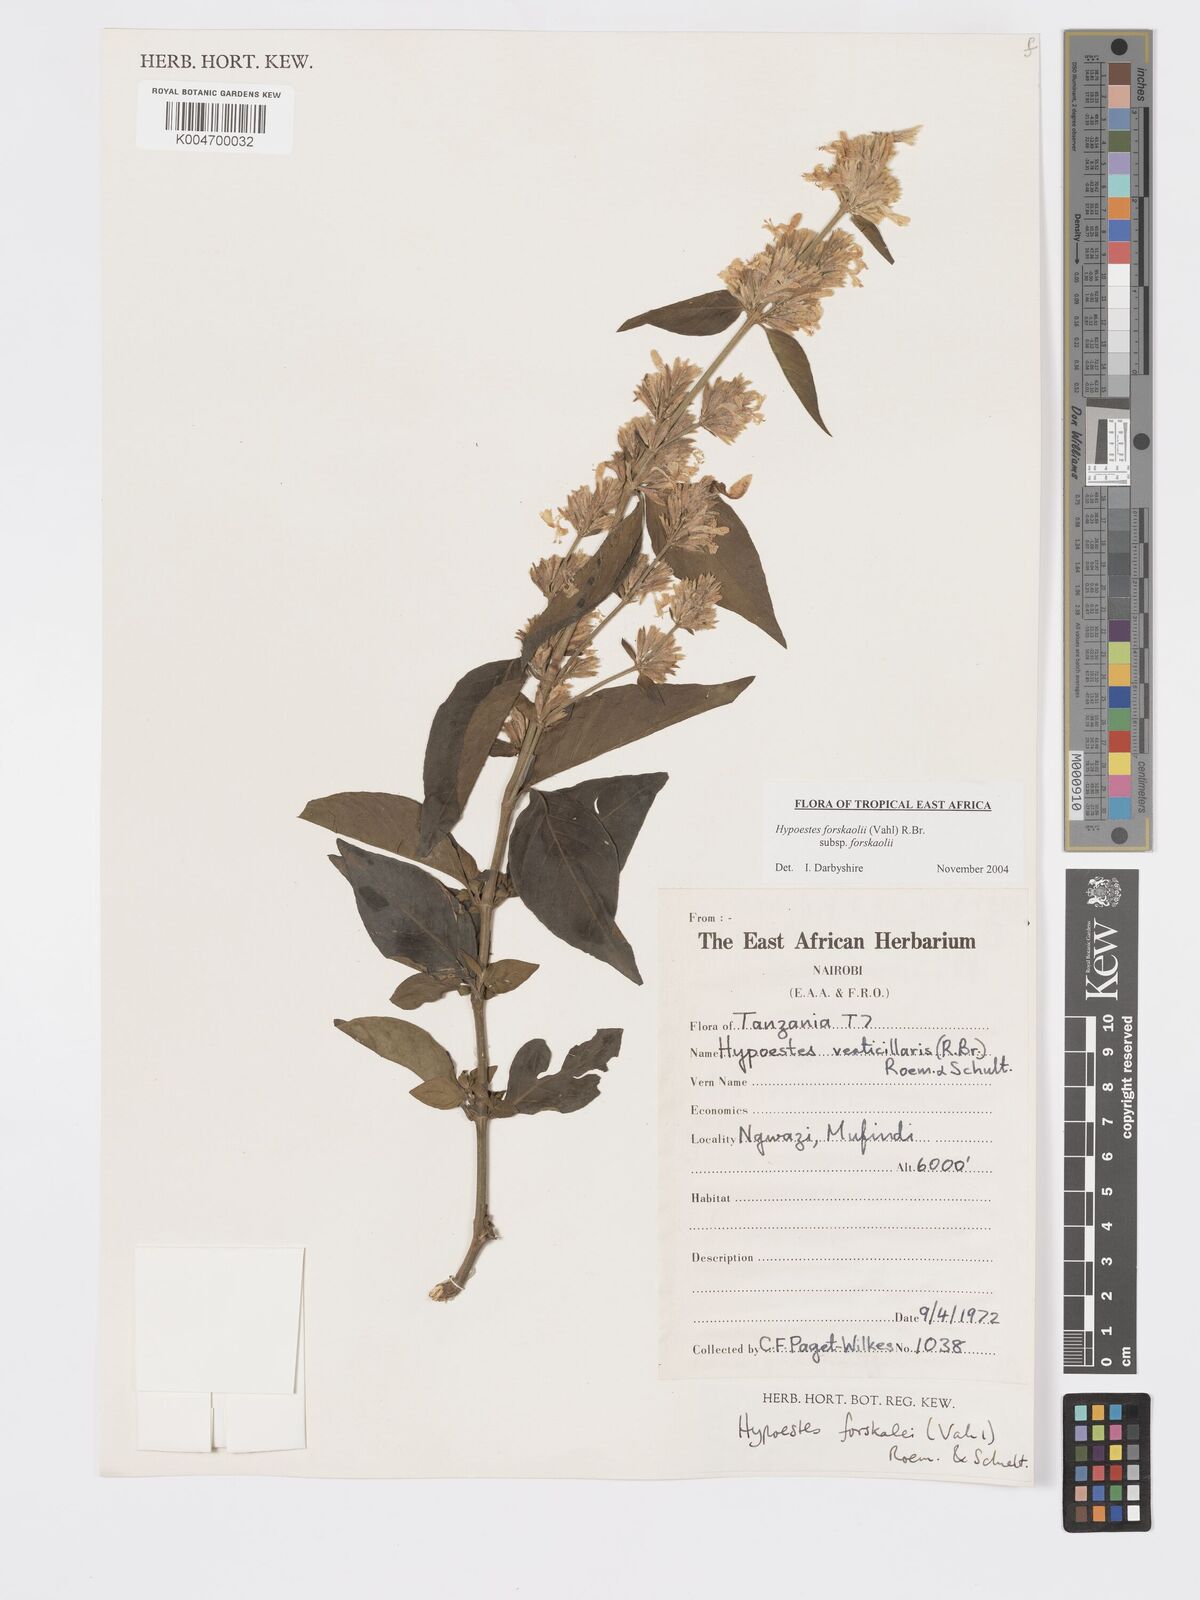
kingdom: Plantae
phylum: Tracheophyta
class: Magnoliopsida
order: Lamiales
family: Acanthaceae
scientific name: Acanthaceae
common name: Acanthaceae
